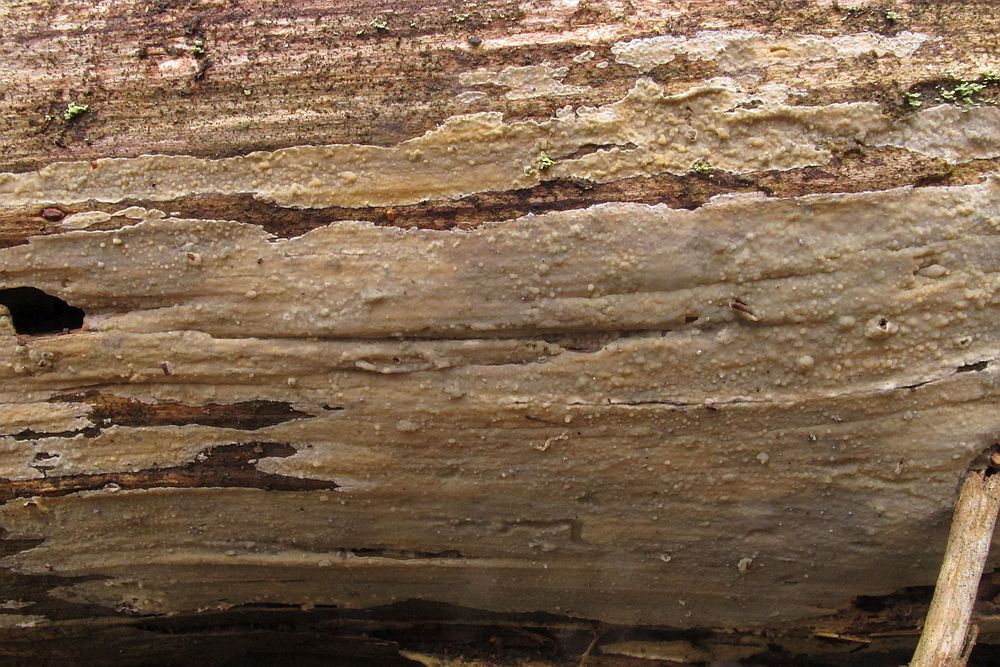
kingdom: Fungi
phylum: Basidiomycota
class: Agaricomycetes
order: Polyporales
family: Steccherinaceae
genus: Cabalodontia
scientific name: Cabalodontia subcretacea
